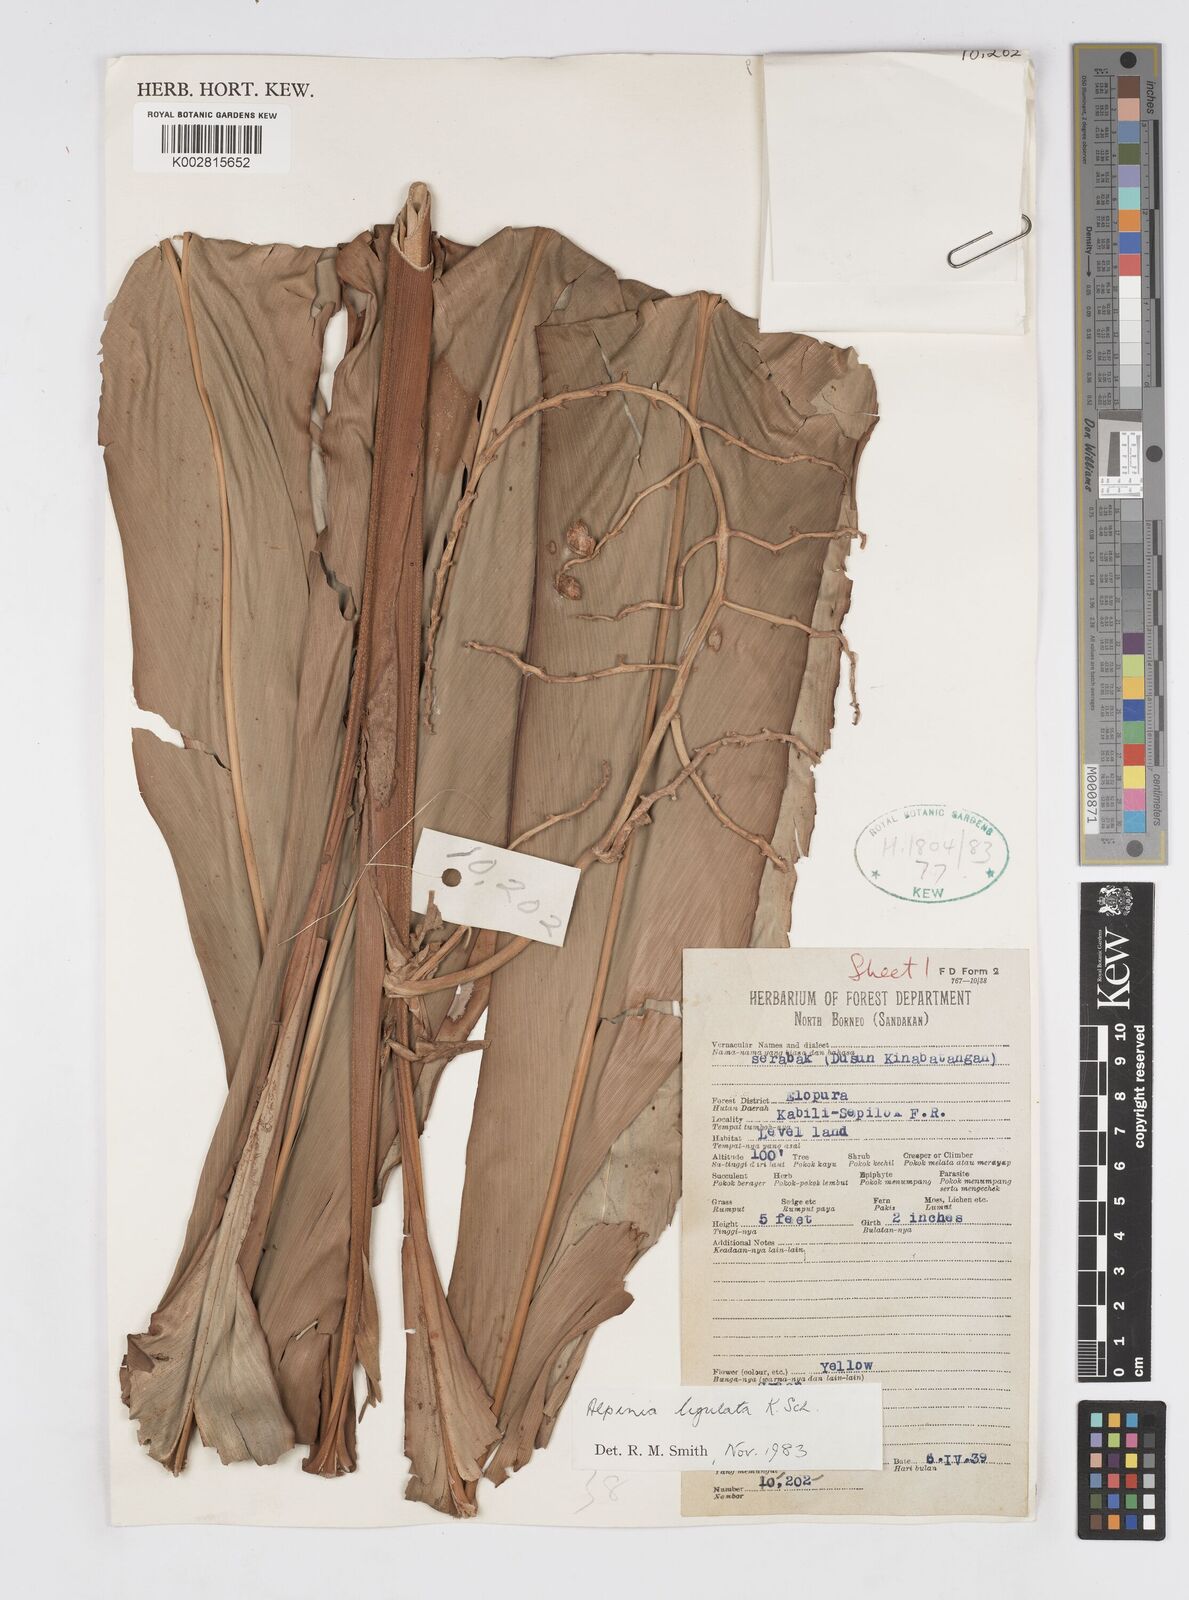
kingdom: Plantae
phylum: Tracheophyta
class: Liliopsida
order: Zingiberales
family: Zingiberaceae
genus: Alpinia
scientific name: Alpinia ligulata
